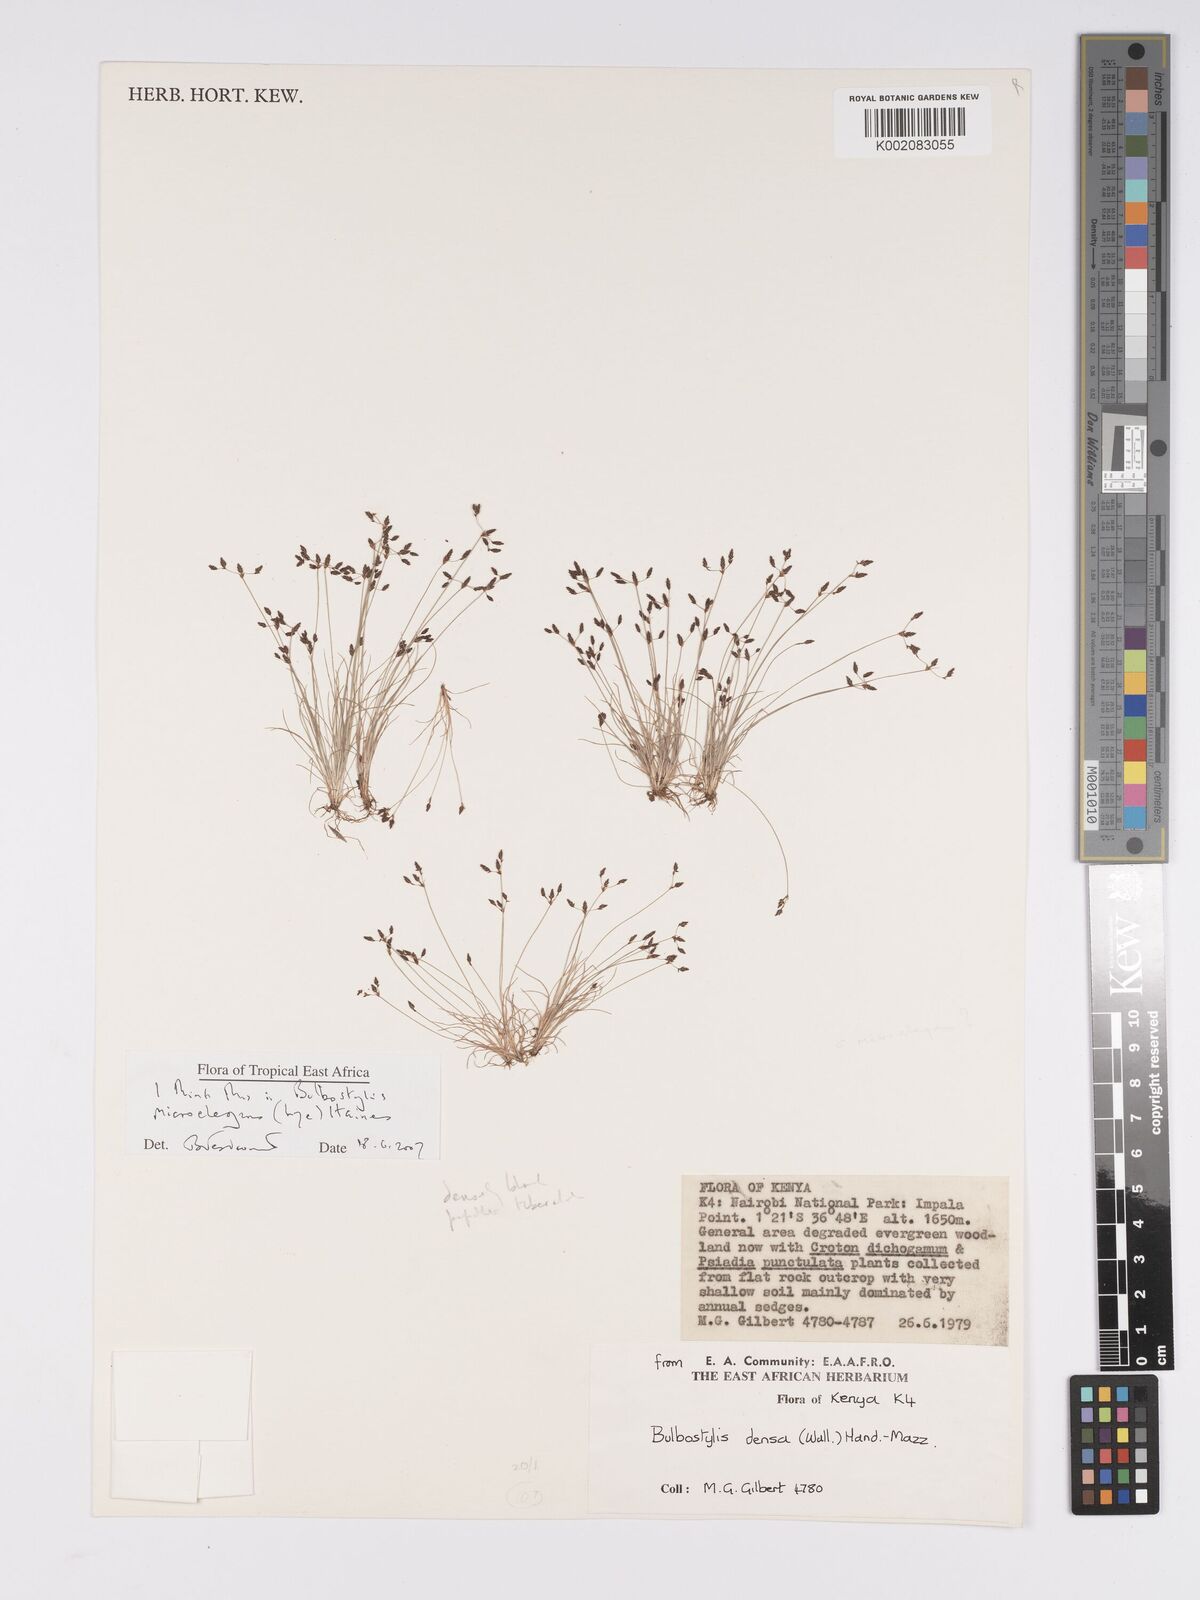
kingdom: Plantae
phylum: Tracheophyta
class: Liliopsida
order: Poales
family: Cyperaceae
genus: Bulbostylis
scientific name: Bulbostylis microelegans
